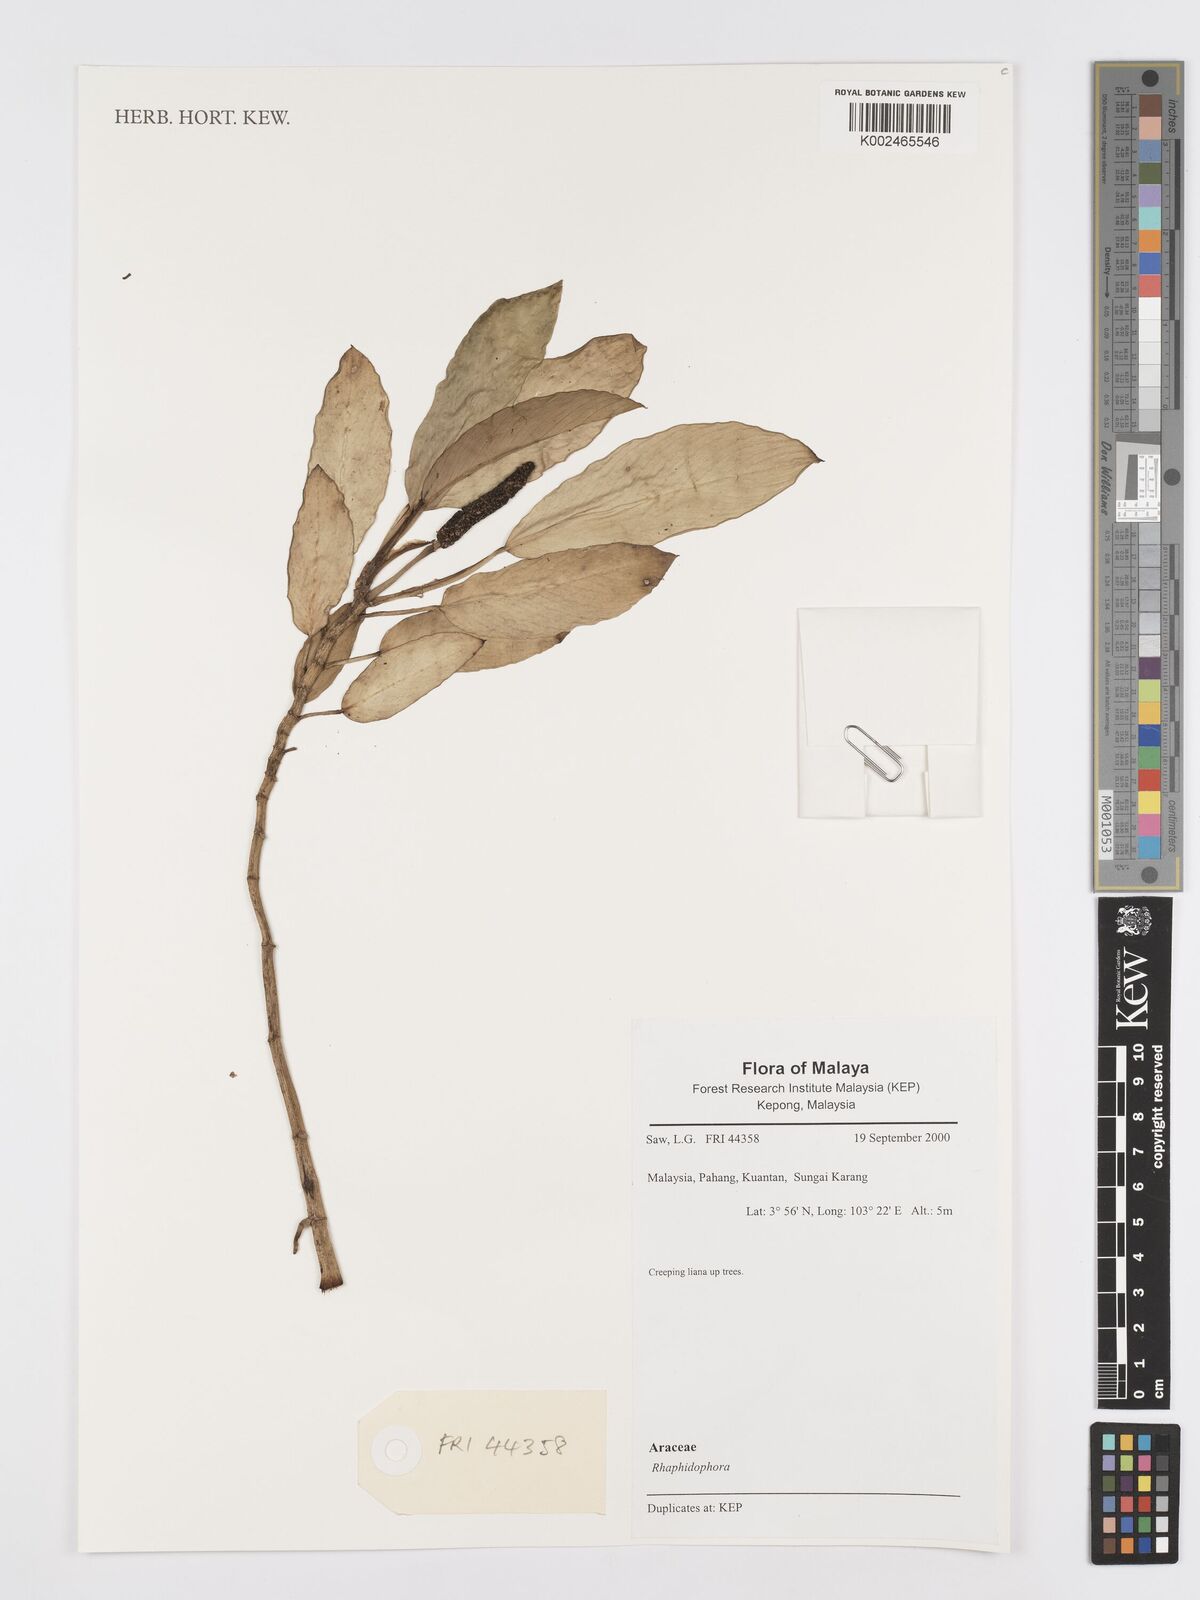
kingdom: Plantae
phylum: Tracheophyta
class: Liliopsida
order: Alismatales
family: Araceae
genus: Rhaphidophora
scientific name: Rhaphidophora
